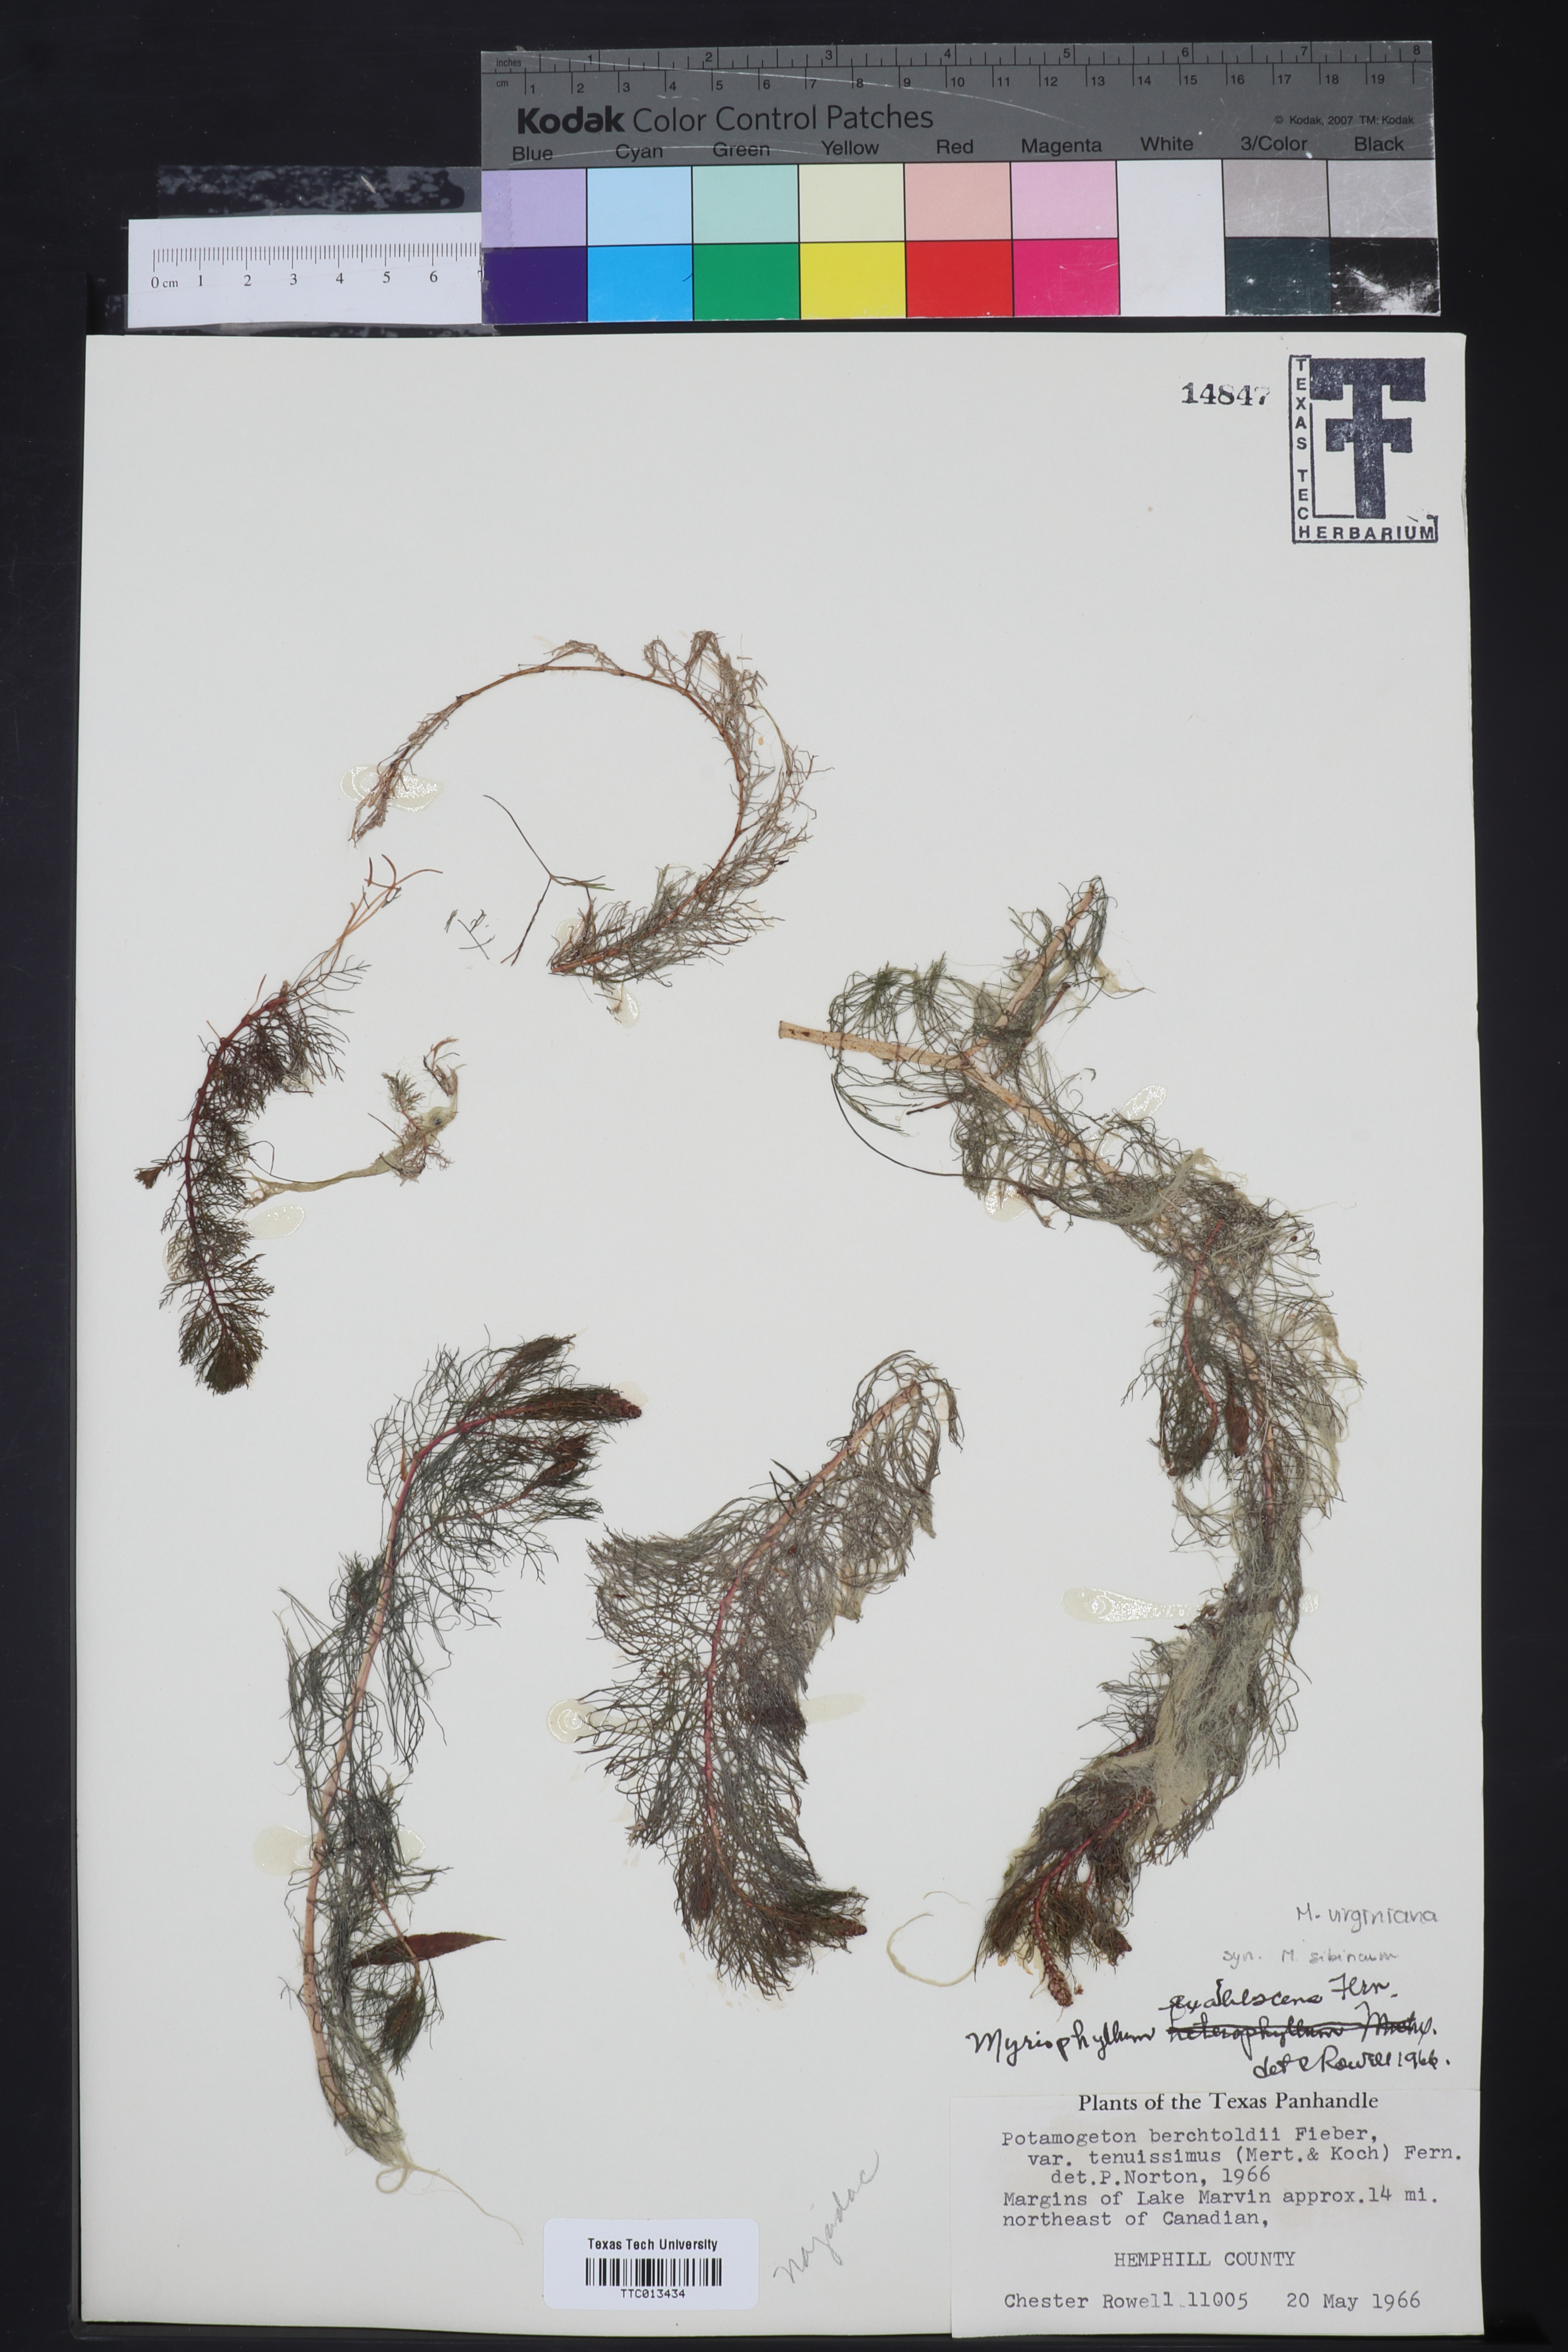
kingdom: Plantae
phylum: Tracheophyta
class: Magnoliopsida
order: Saxifragales
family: Haloragaceae
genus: Myriophyllum
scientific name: Myriophyllum sibiricum
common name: Siberian water-milfoil
